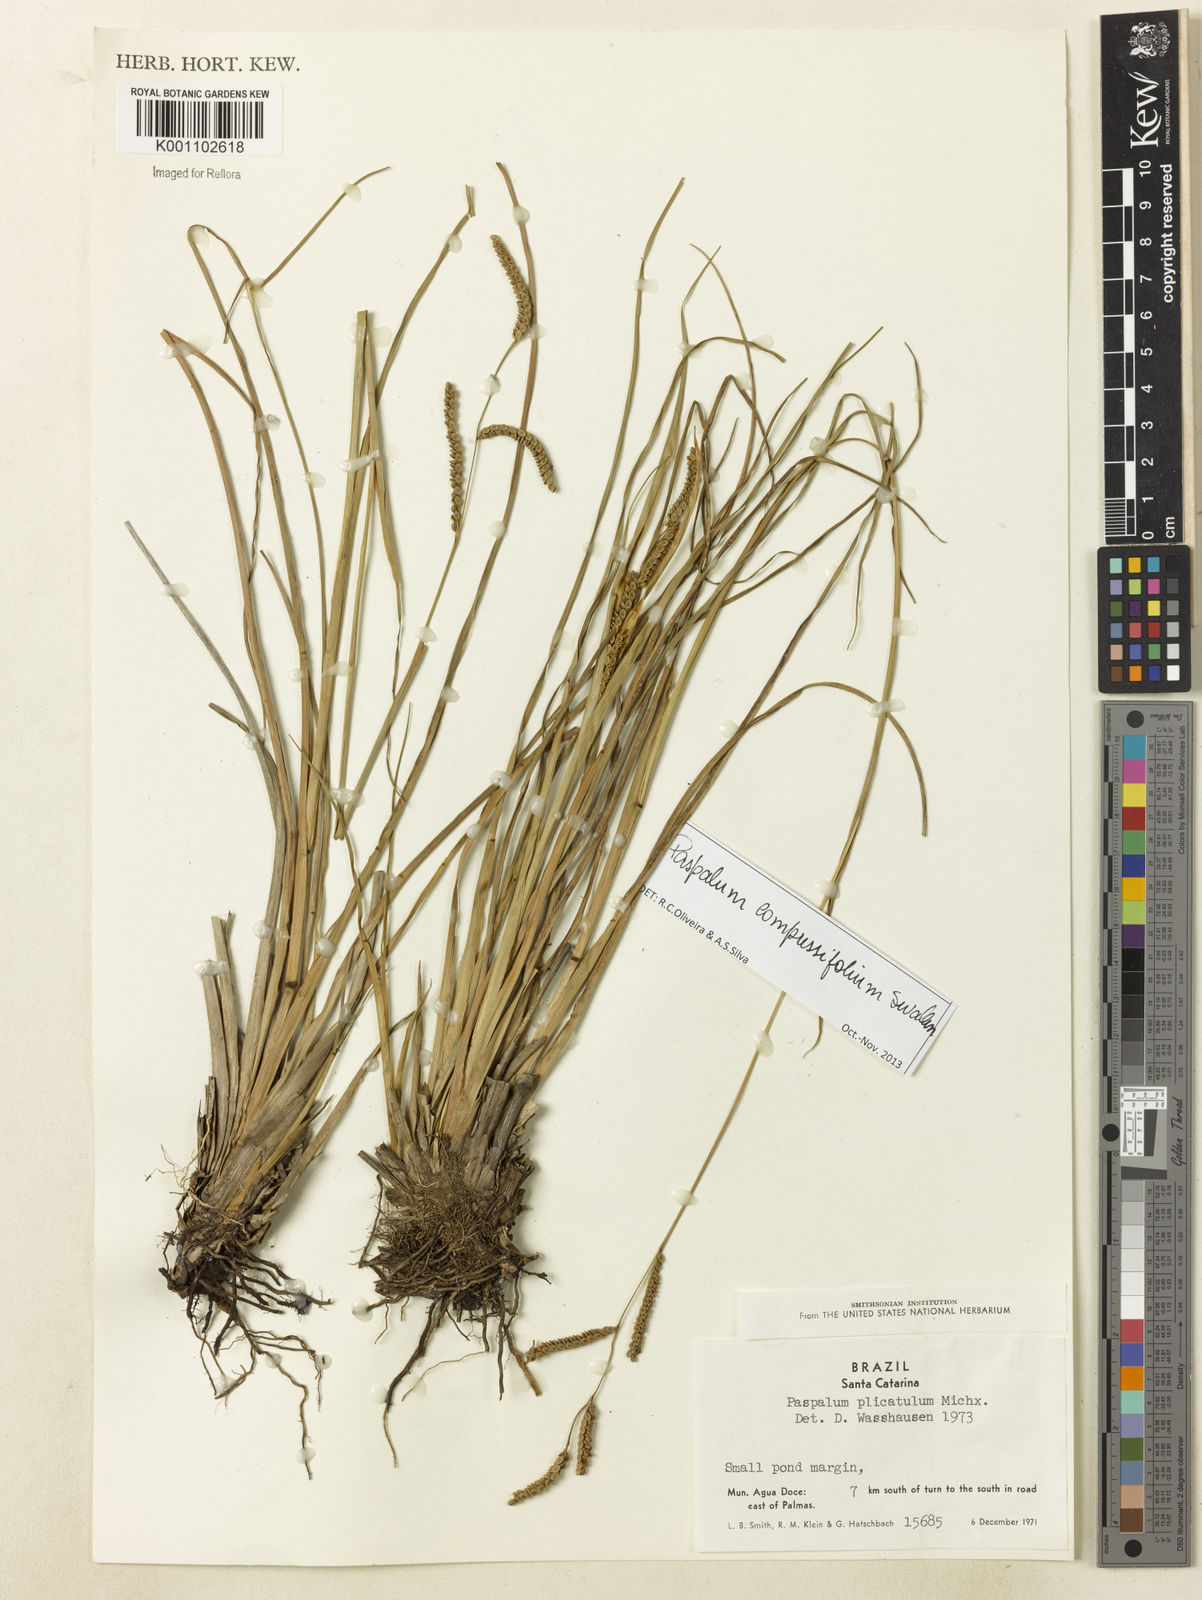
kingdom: Plantae
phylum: Tracheophyta
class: Liliopsida
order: Poales
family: Poaceae
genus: Paspalum
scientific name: Paspalum
